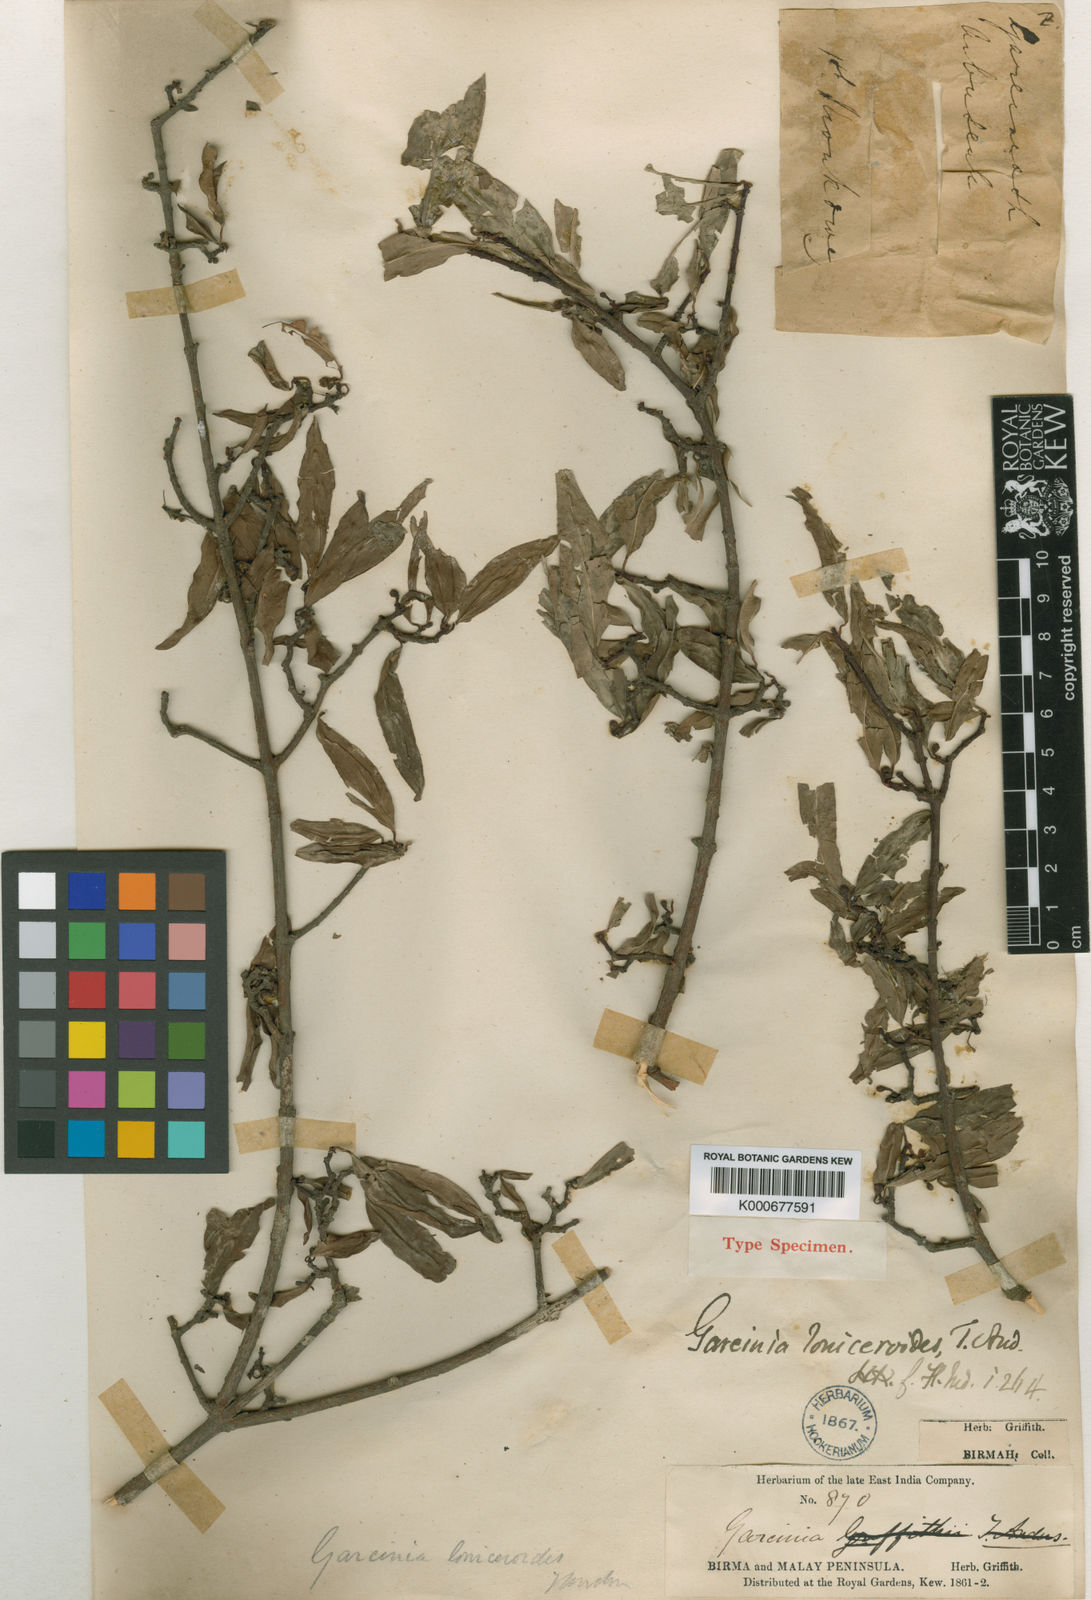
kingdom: Plantae
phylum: Tracheophyta
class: Magnoliopsida
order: Malpighiales
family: Clusiaceae
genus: Garcinia
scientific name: Garcinia succifolia
